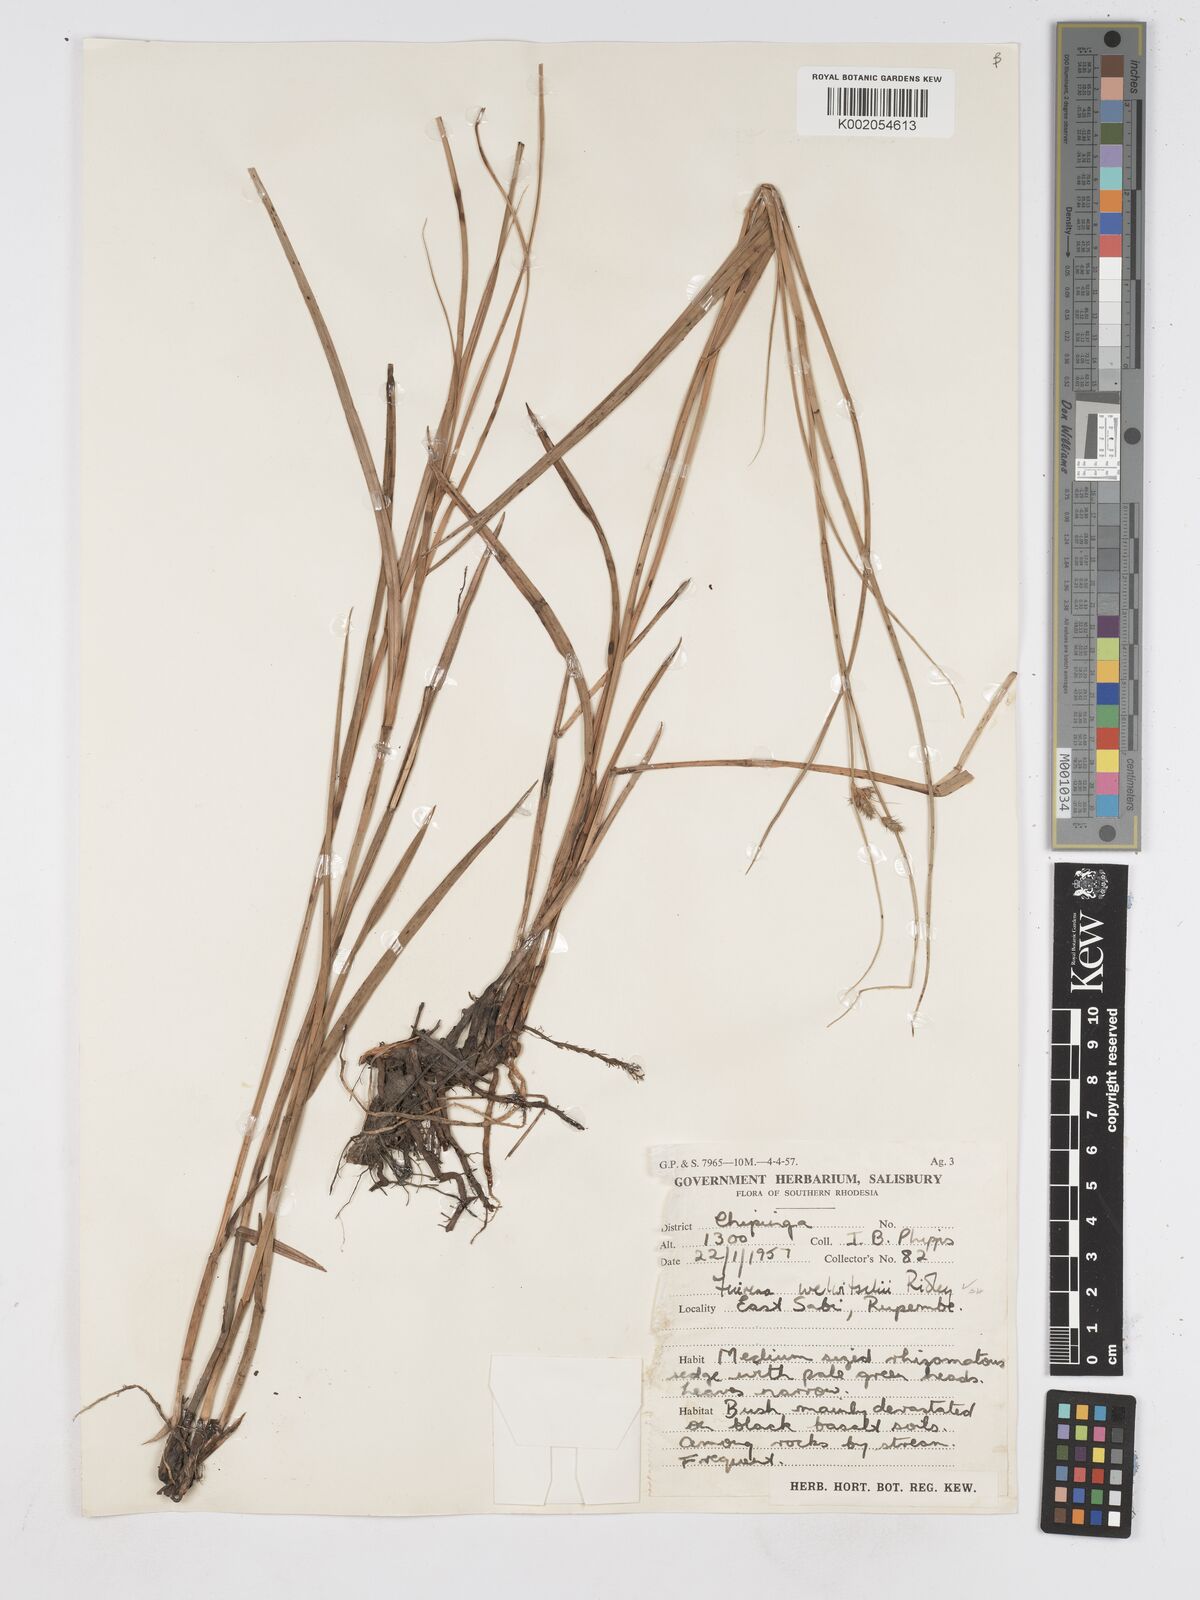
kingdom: Plantae
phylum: Tracheophyta
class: Liliopsida
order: Poales
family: Cyperaceae
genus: Fuirena
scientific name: Fuirena welwitschii
